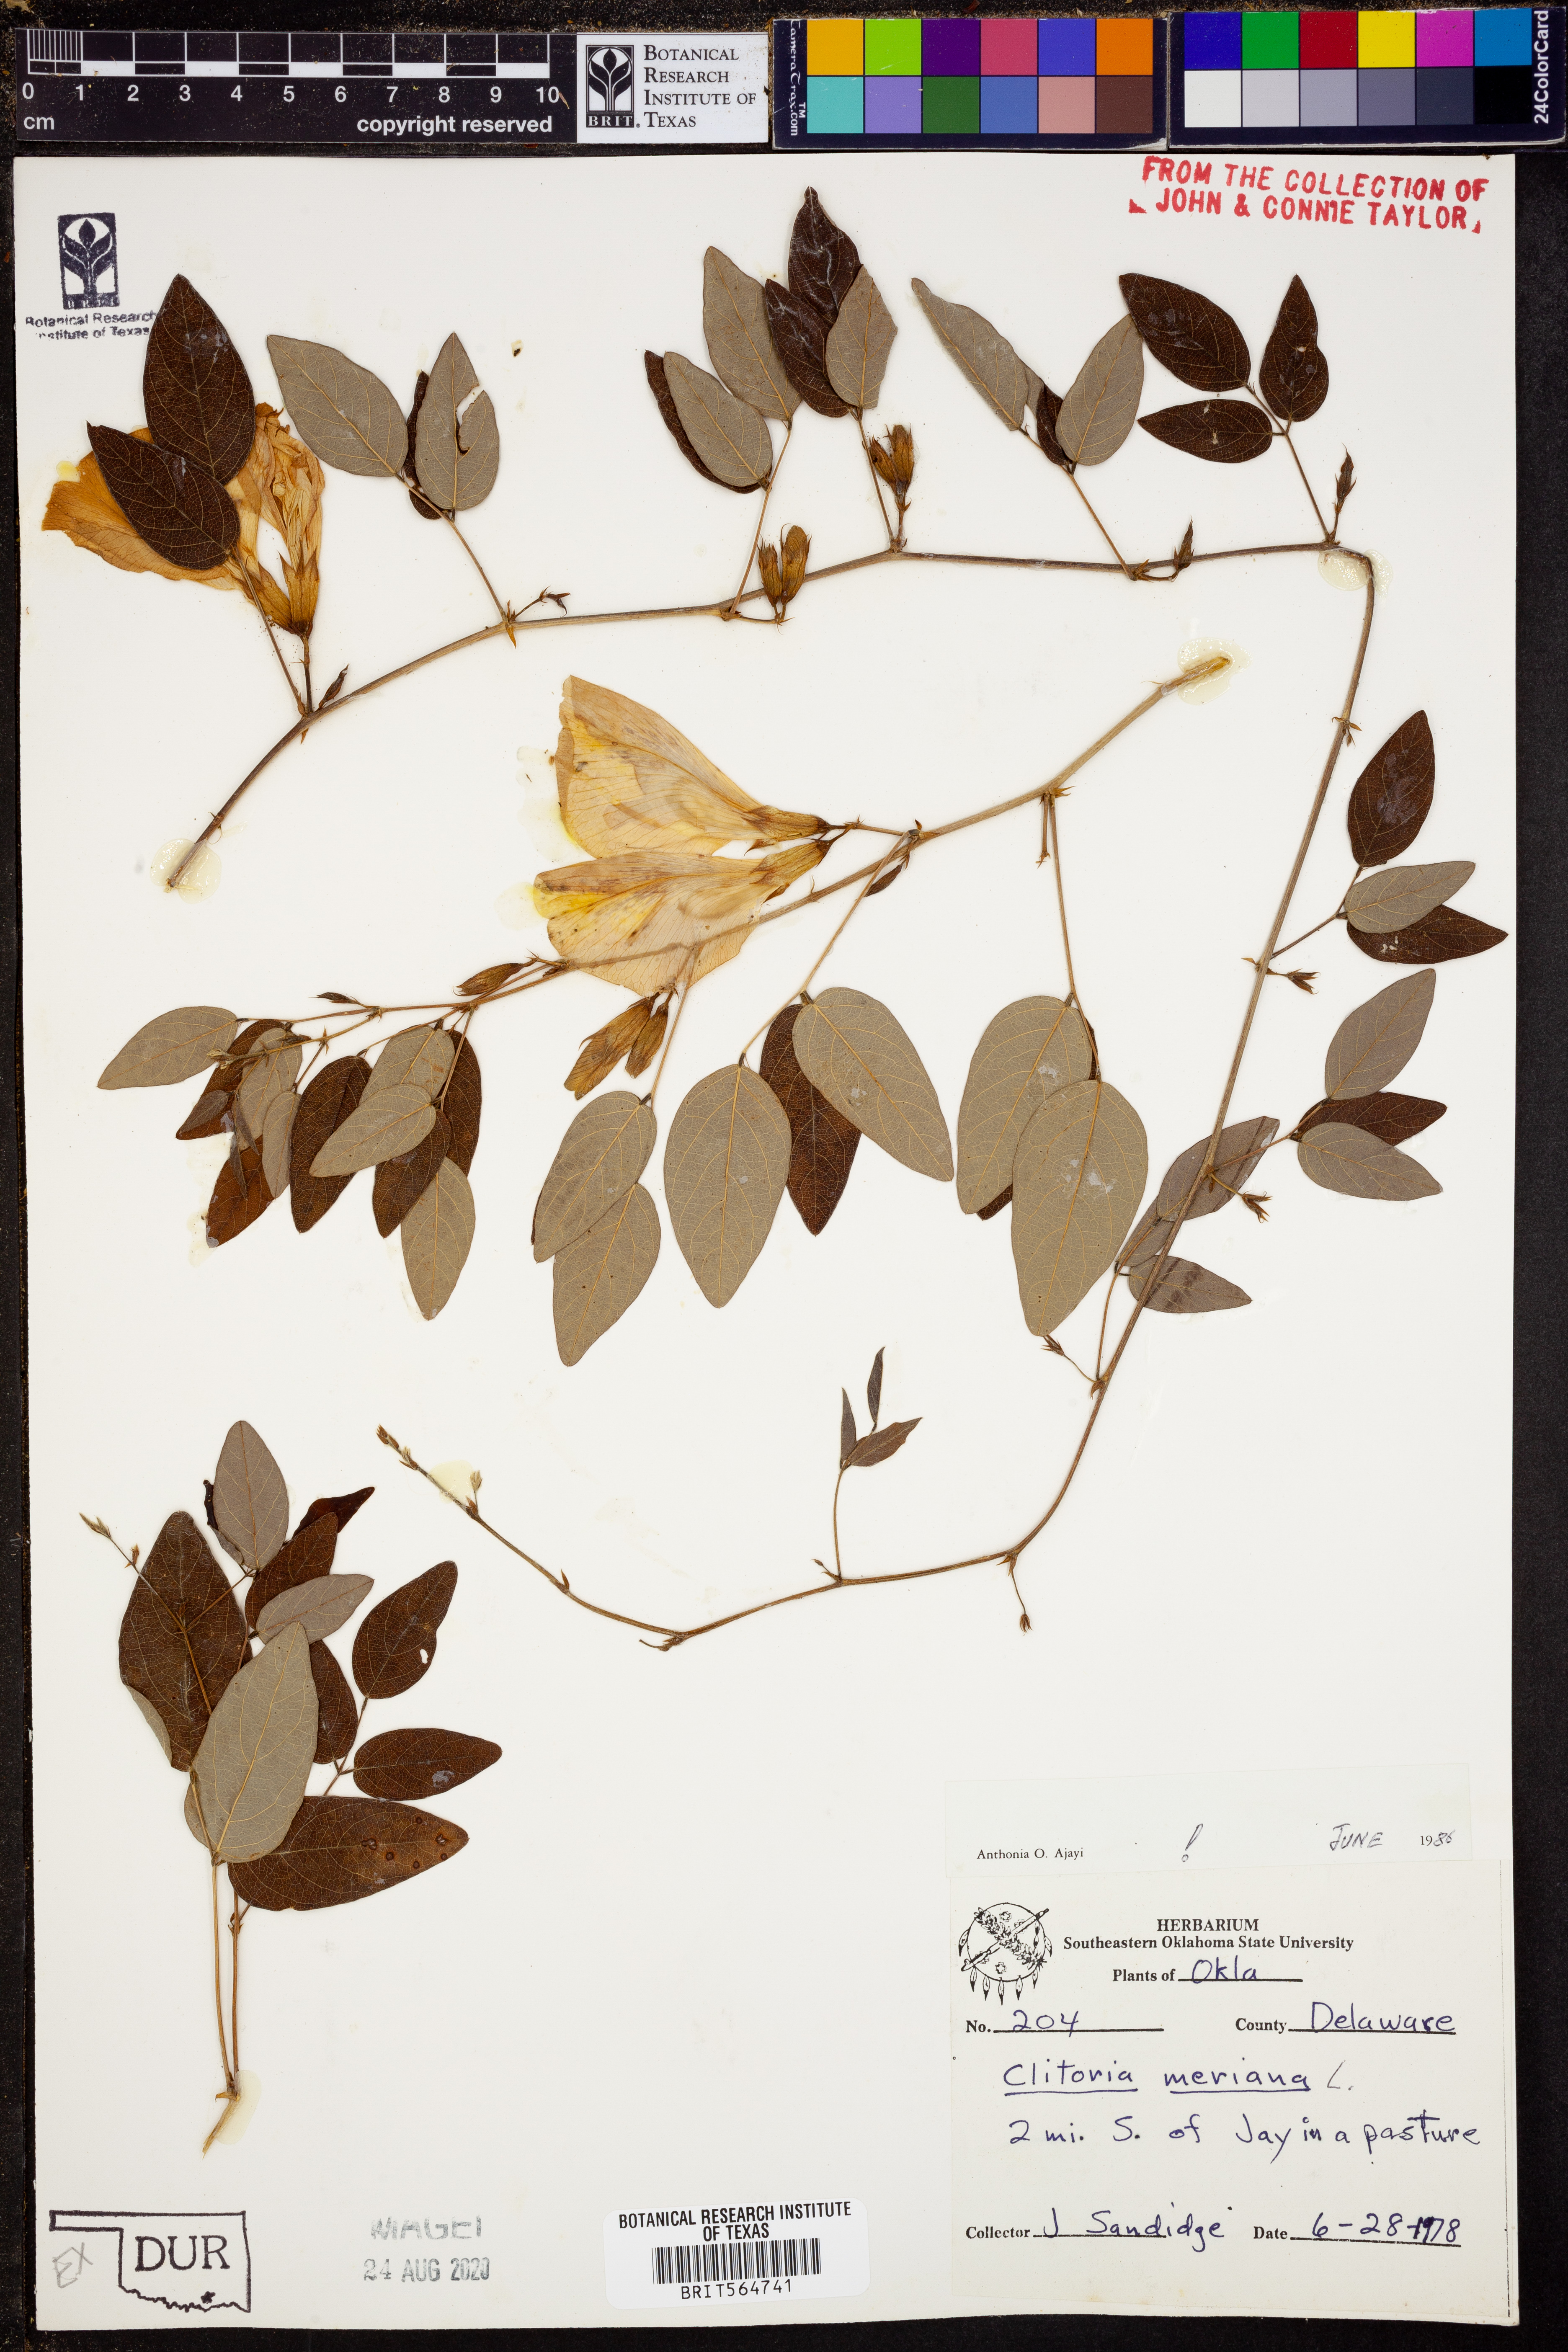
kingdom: Plantae
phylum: Tracheophyta
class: Magnoliopsida
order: Fabales
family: Fabaceae
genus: Clitoria
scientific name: Clitoria mariana
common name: Butterfly-pea
